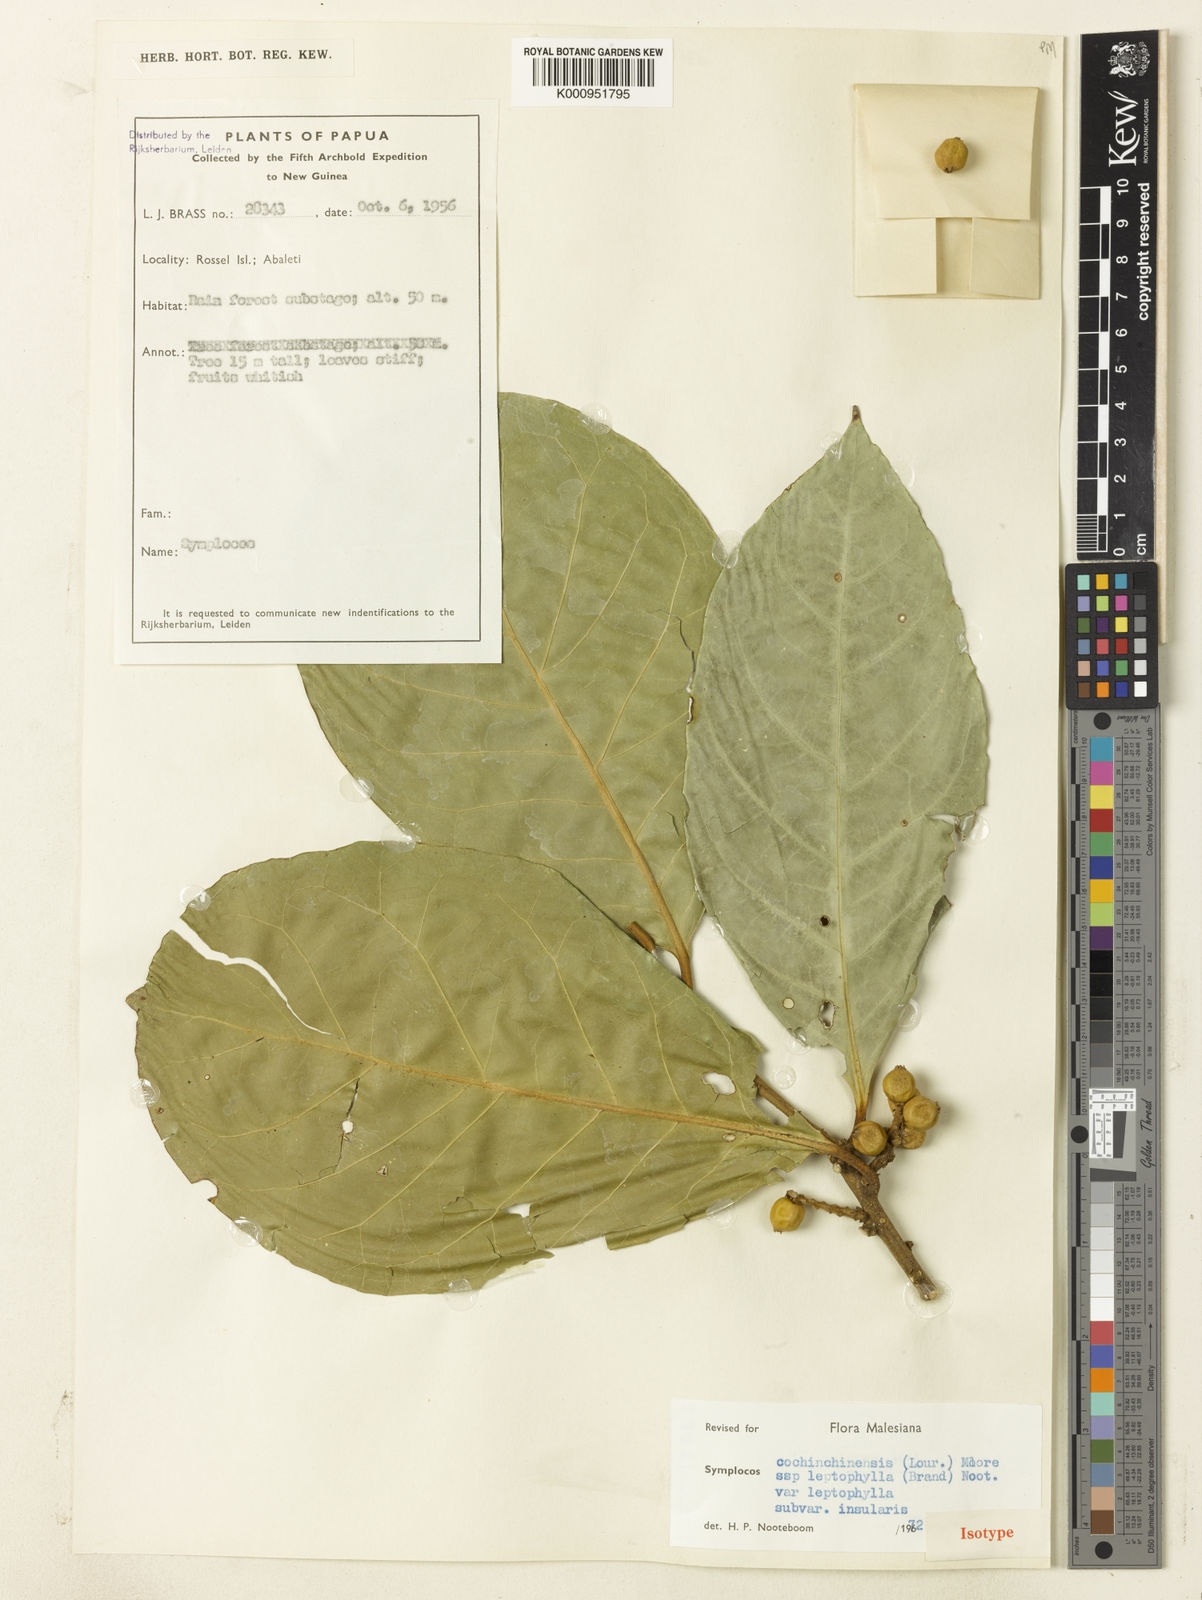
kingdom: Plantae
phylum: Tracheophyta
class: Magnoliopsida
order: Ericales
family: Symplocaceae
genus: Symplocos
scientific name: Symplocos cochinchinensis
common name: Buff hazelwood
